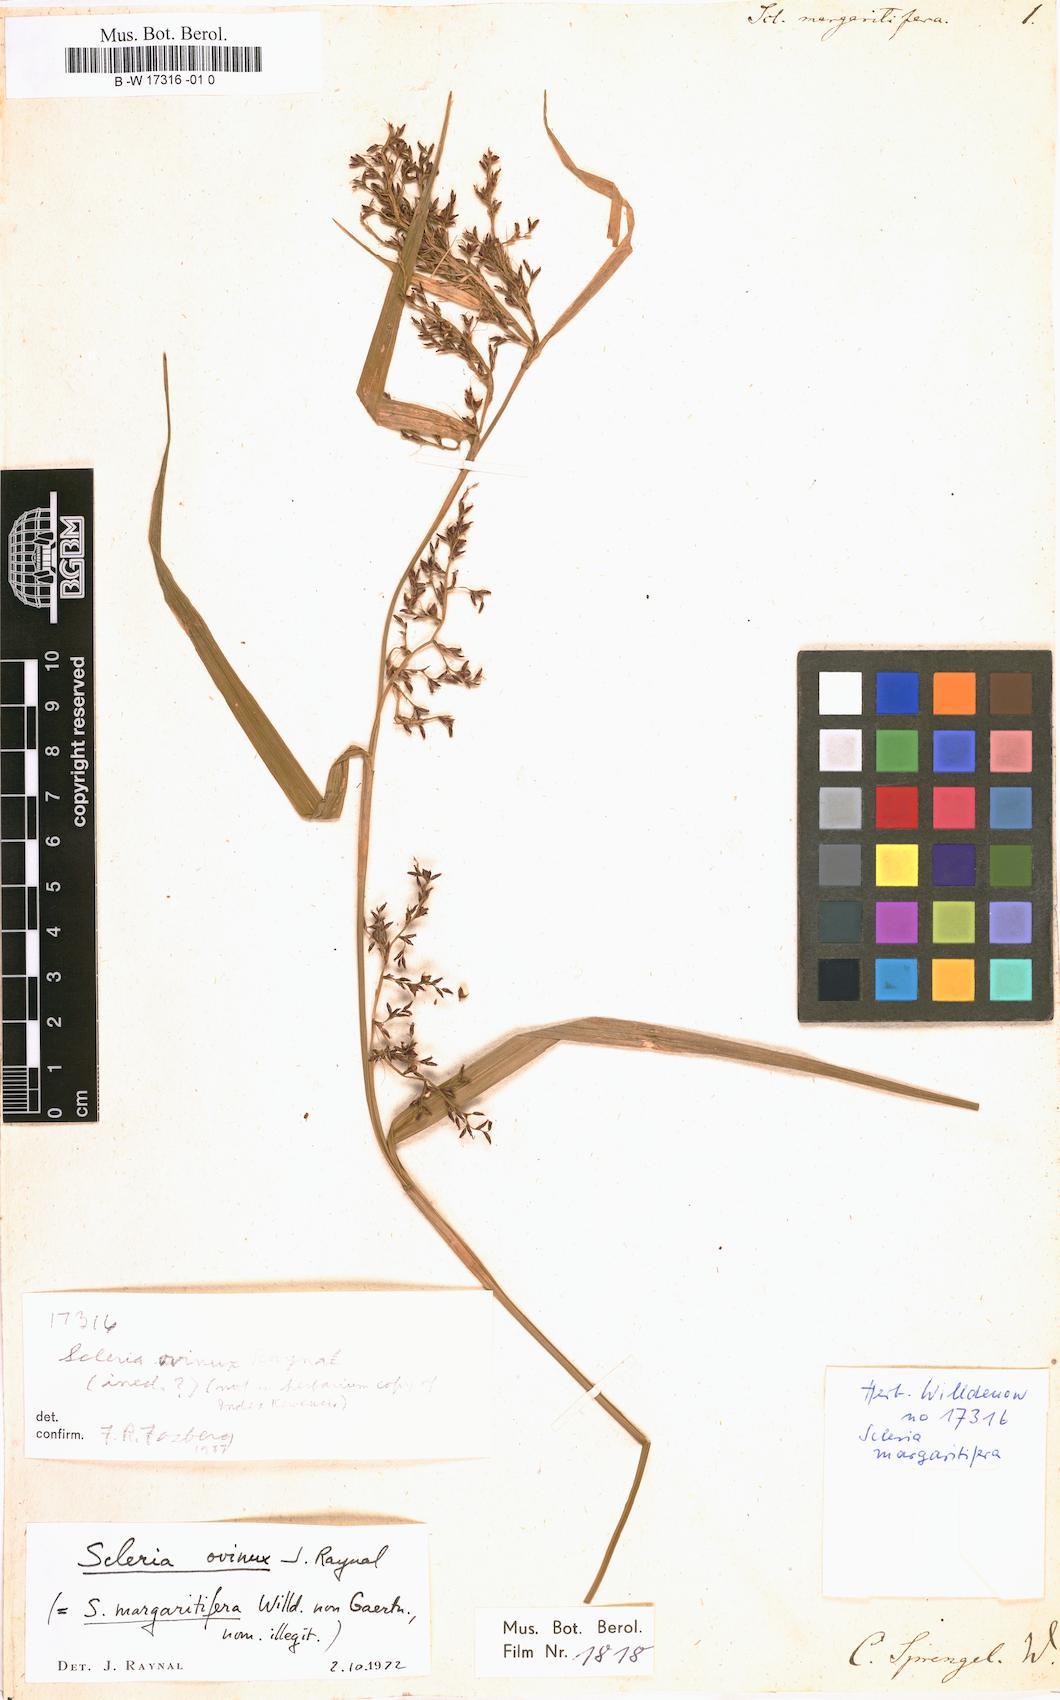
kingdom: Plantae
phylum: Tracheophyta
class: Liliopsida
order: Poales
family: Cyperaceae
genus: Scleria
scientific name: Scleria gaertneri
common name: Cortadera blanca
